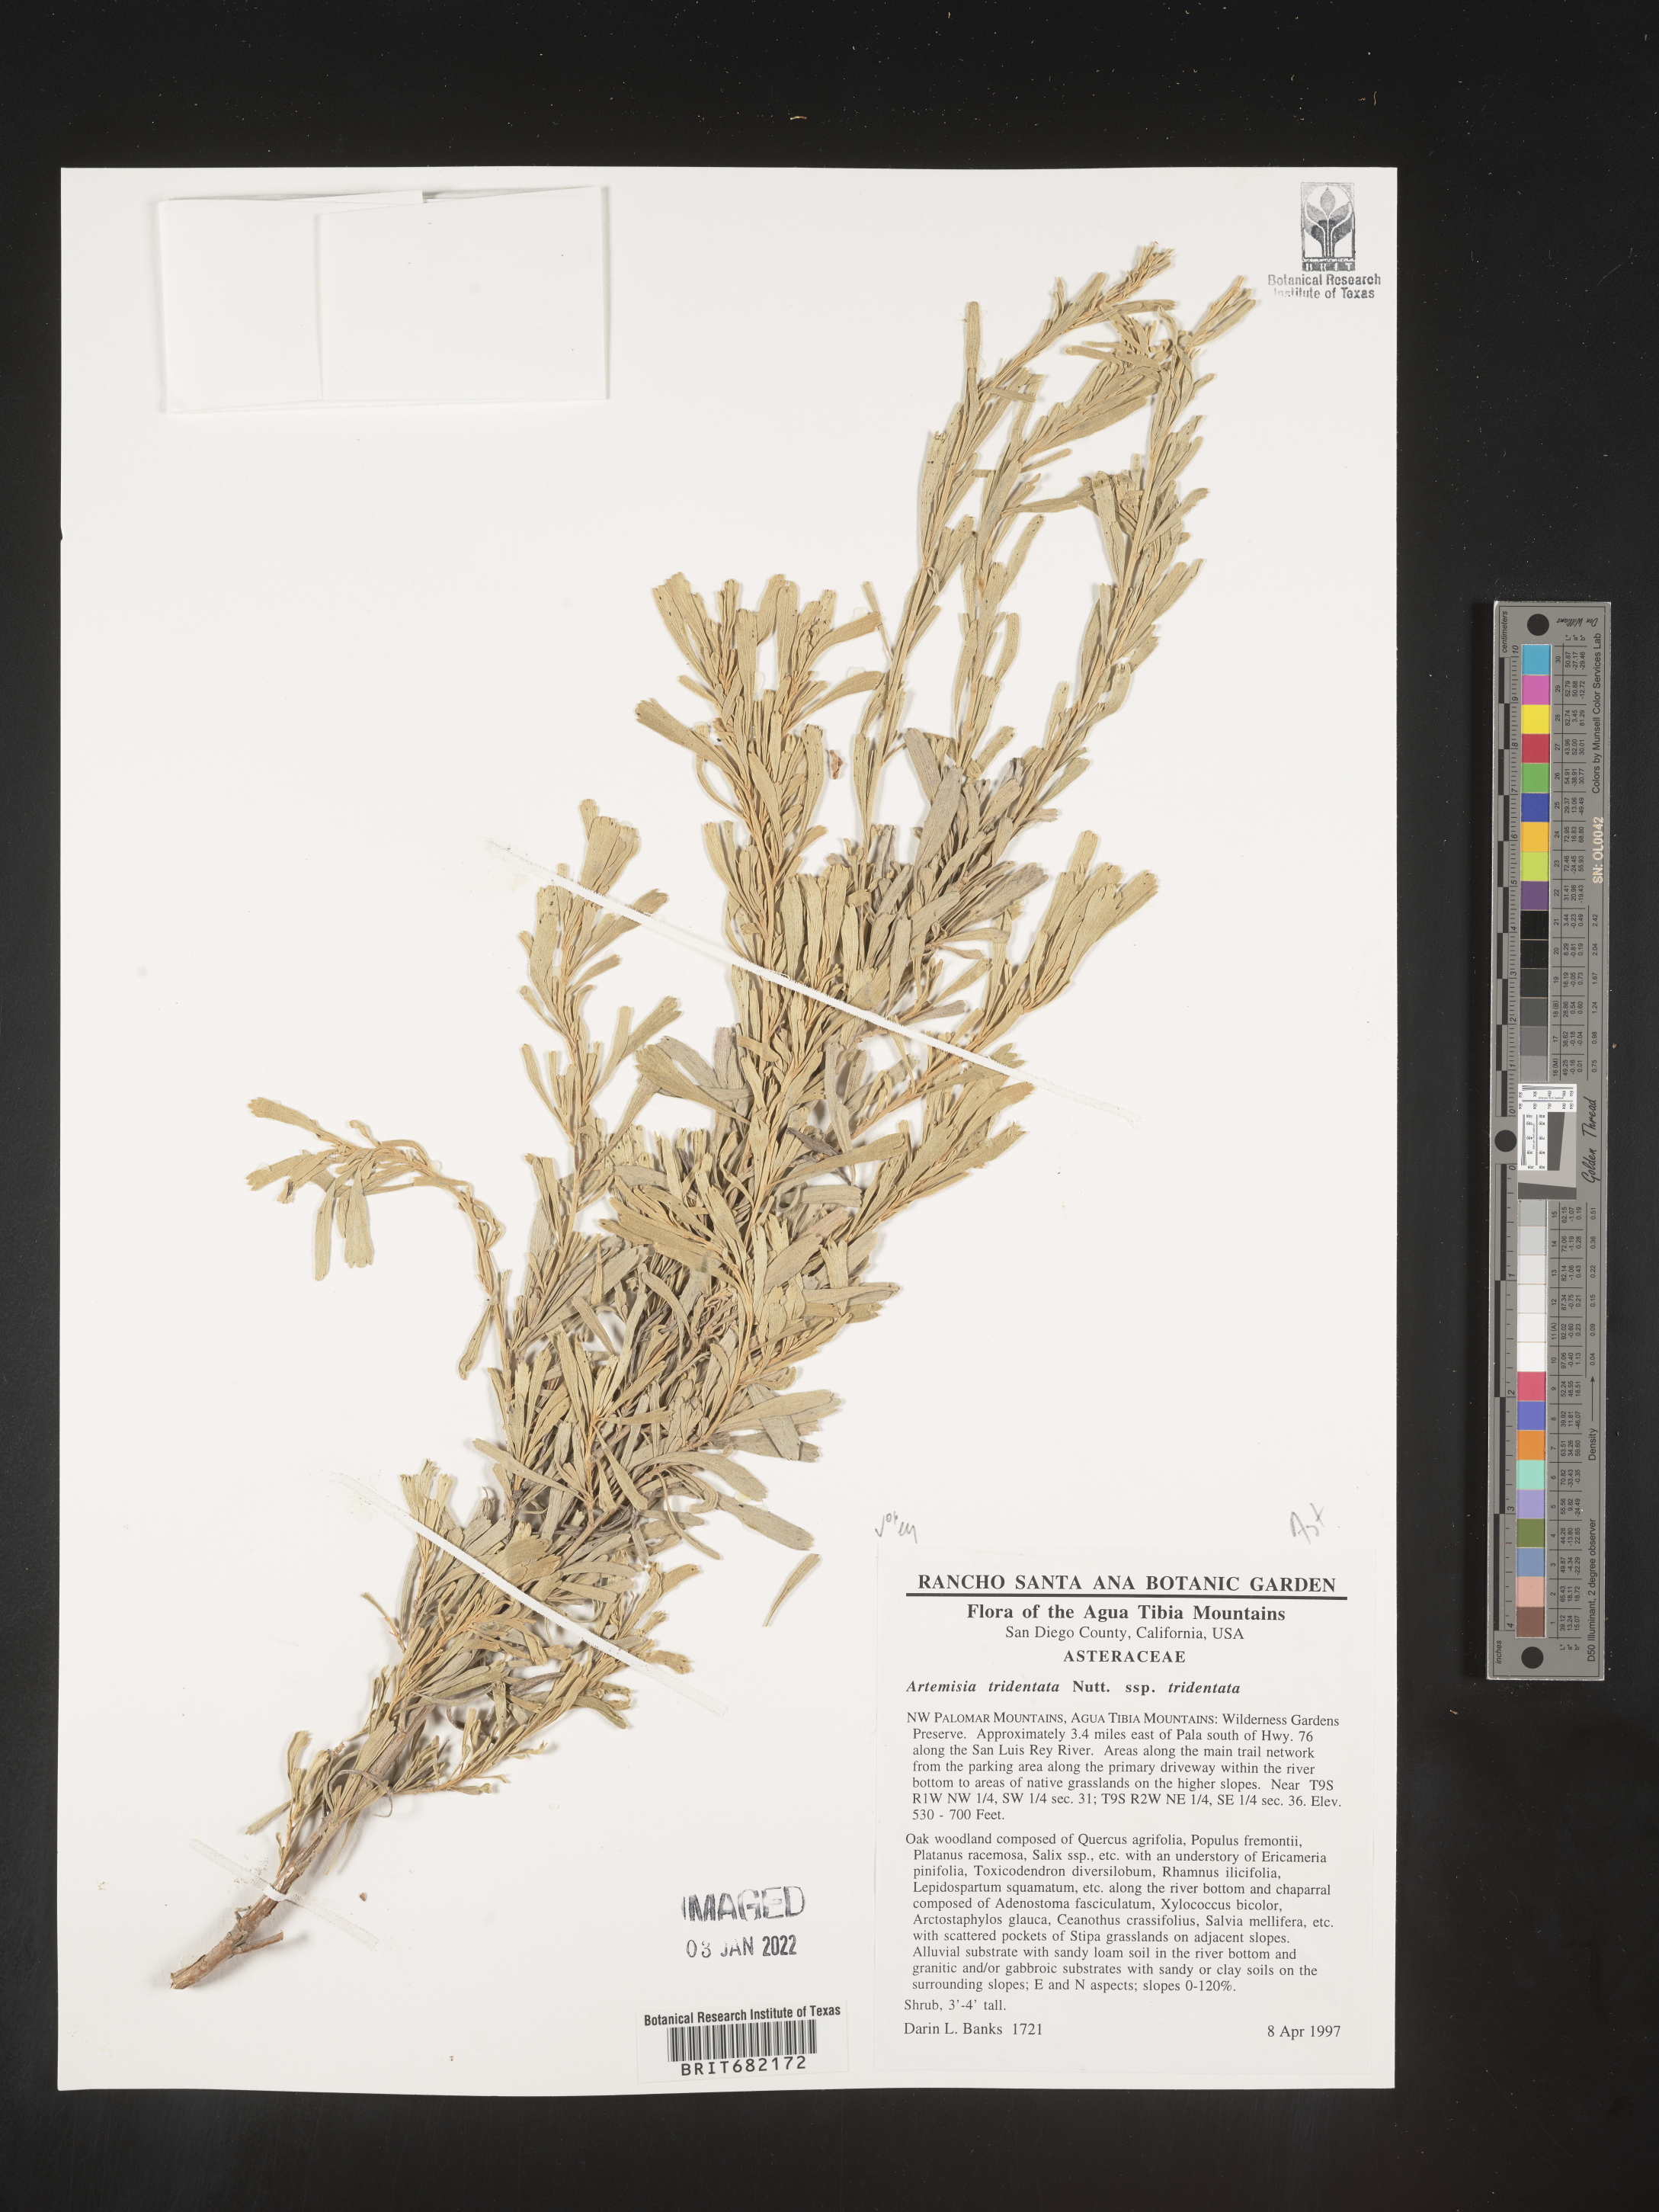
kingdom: Plantae
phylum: Tracheophyta
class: Magnoliopsida
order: Asterales
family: Asteraceae
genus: Artemisia
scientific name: Artemisia tridentata
